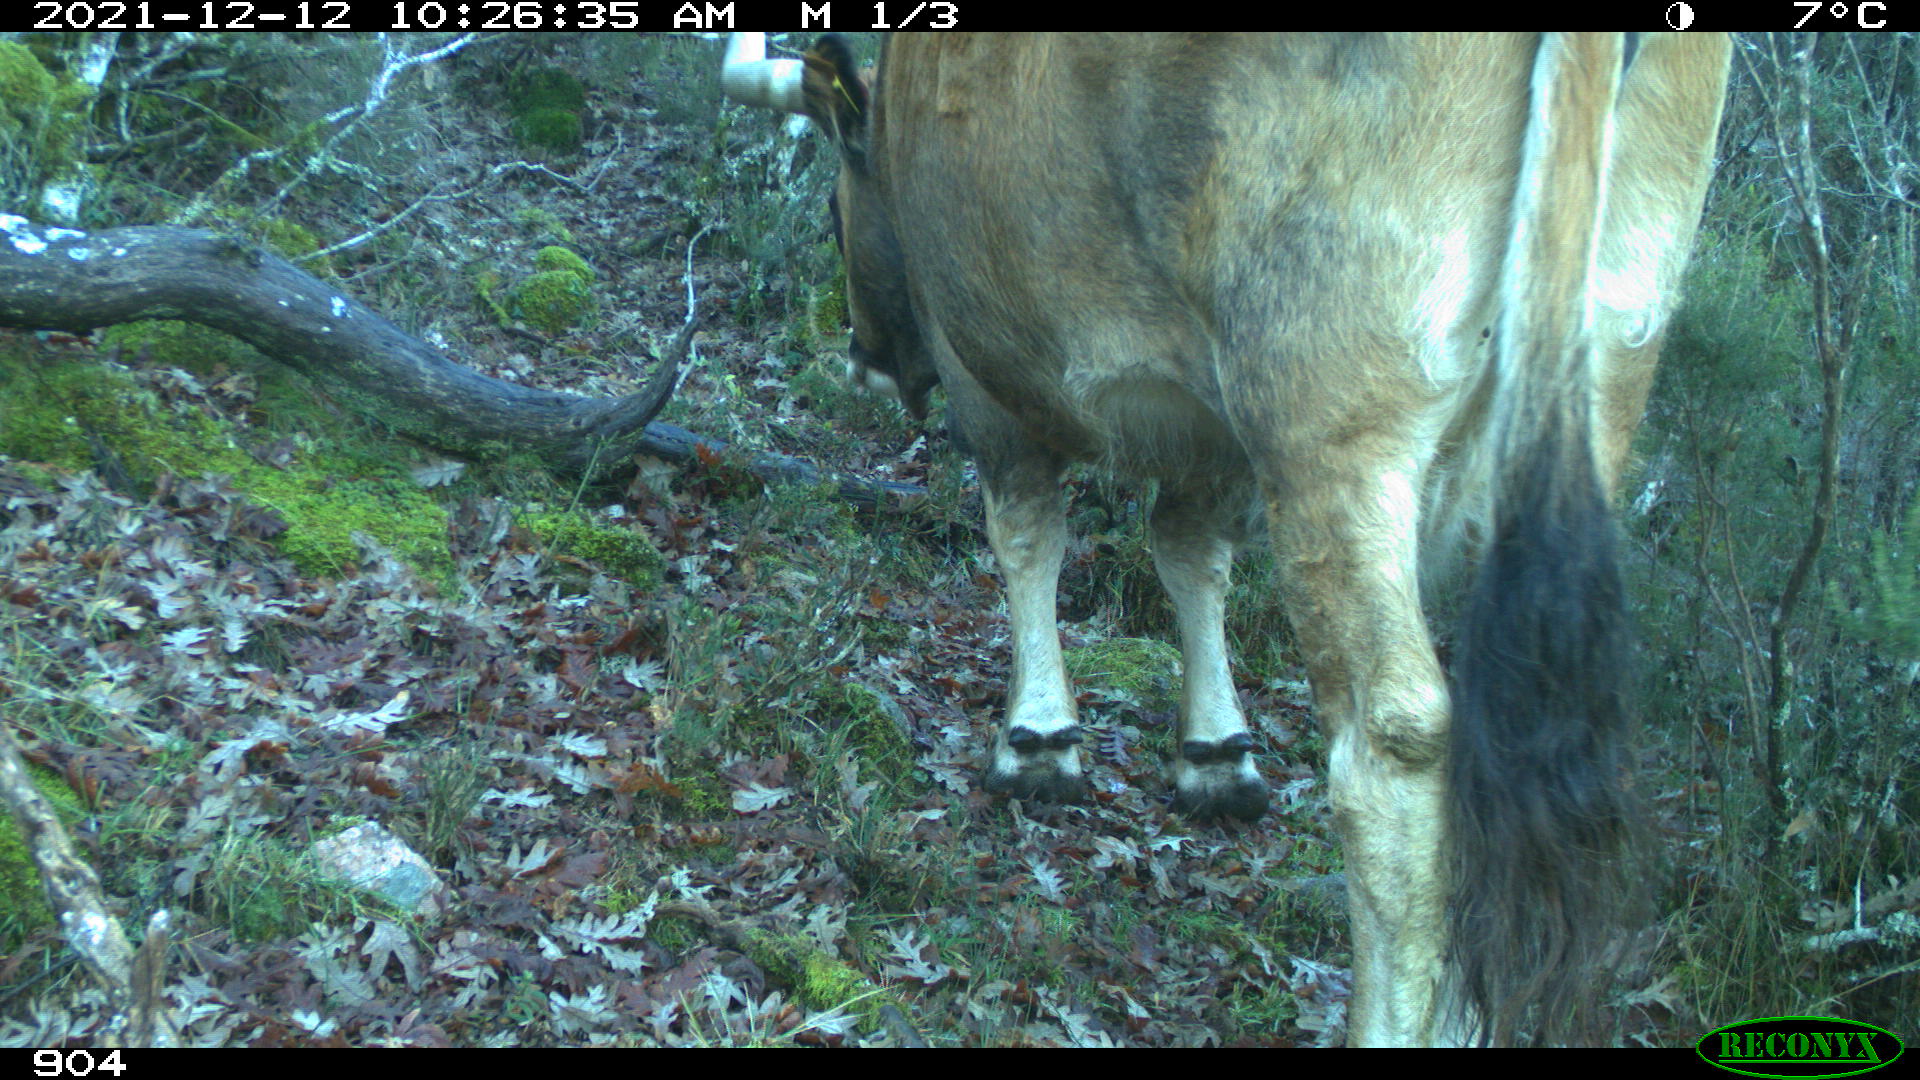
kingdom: Animalia
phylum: Chordata
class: Mammalia
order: Artiodactyla
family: Bovidae
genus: Bos
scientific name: Bos taurus
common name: Domesticated cattle
